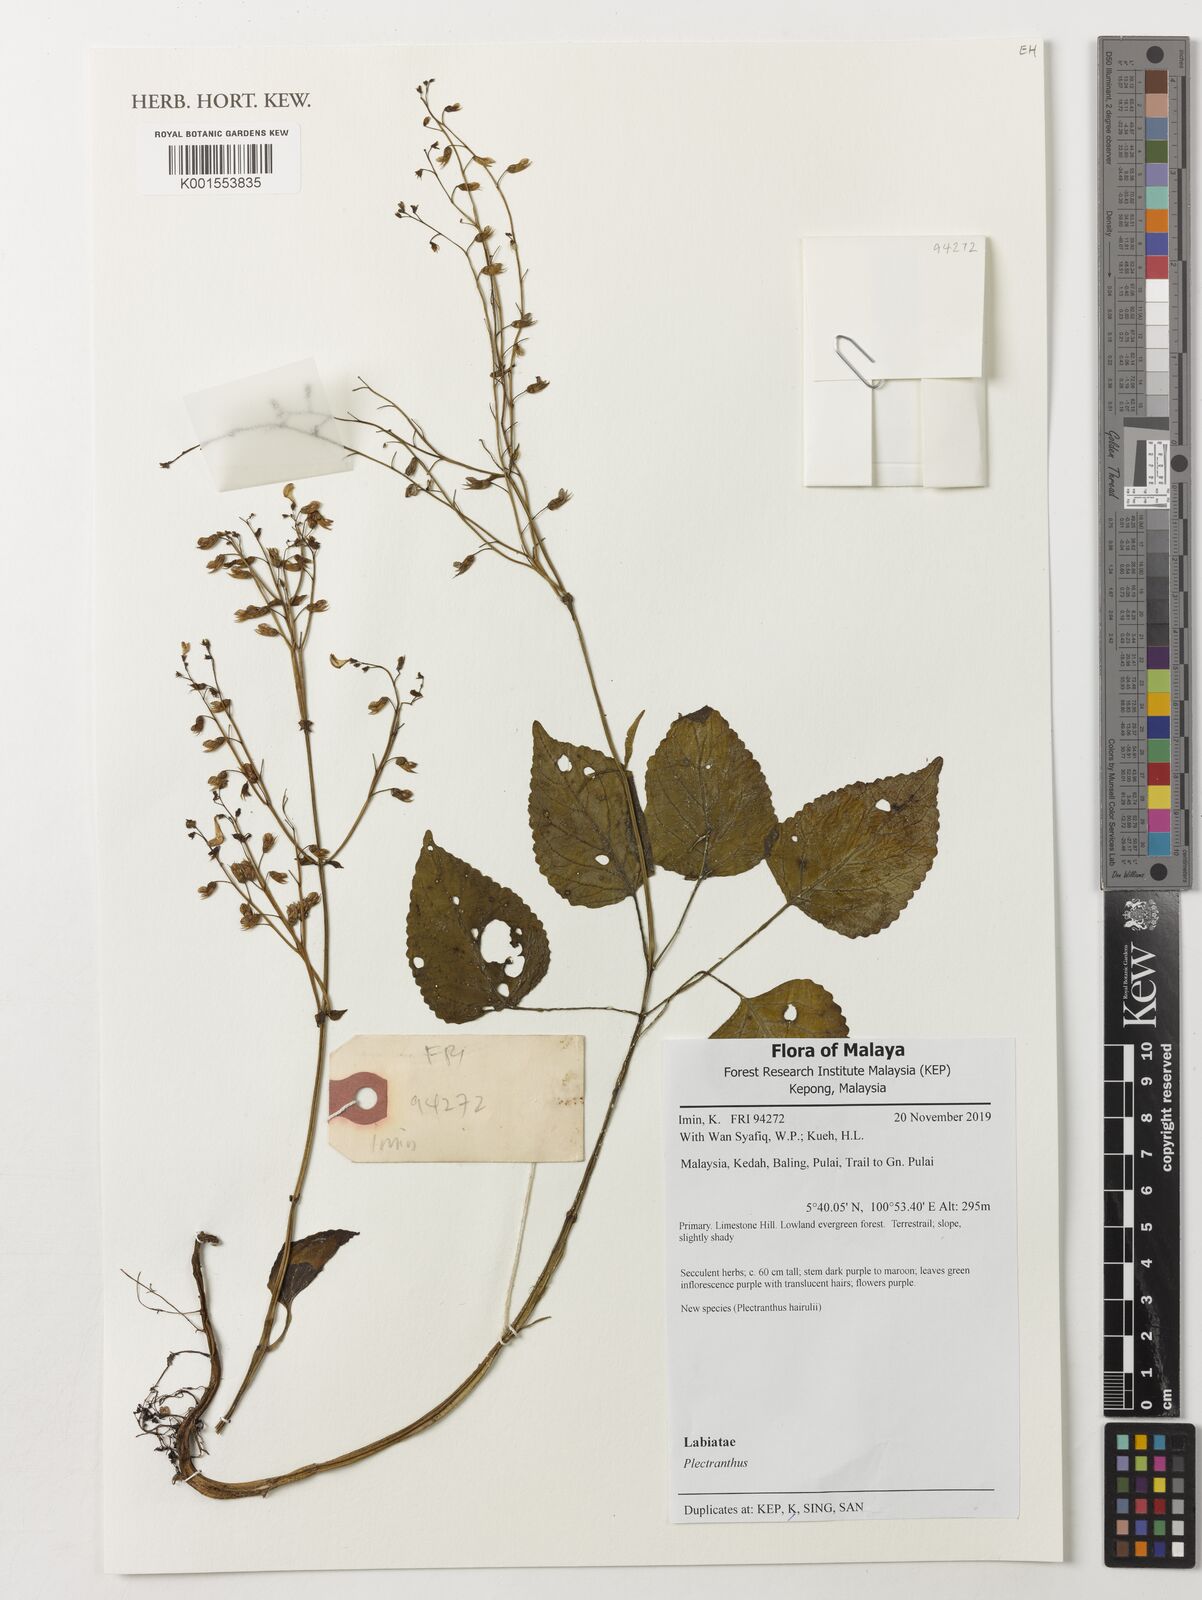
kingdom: Plantae
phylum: Tracheophyta
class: Magnoliopsida
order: Lamiales
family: Lamiaceae
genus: Plectranthus
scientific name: Plectranthus
